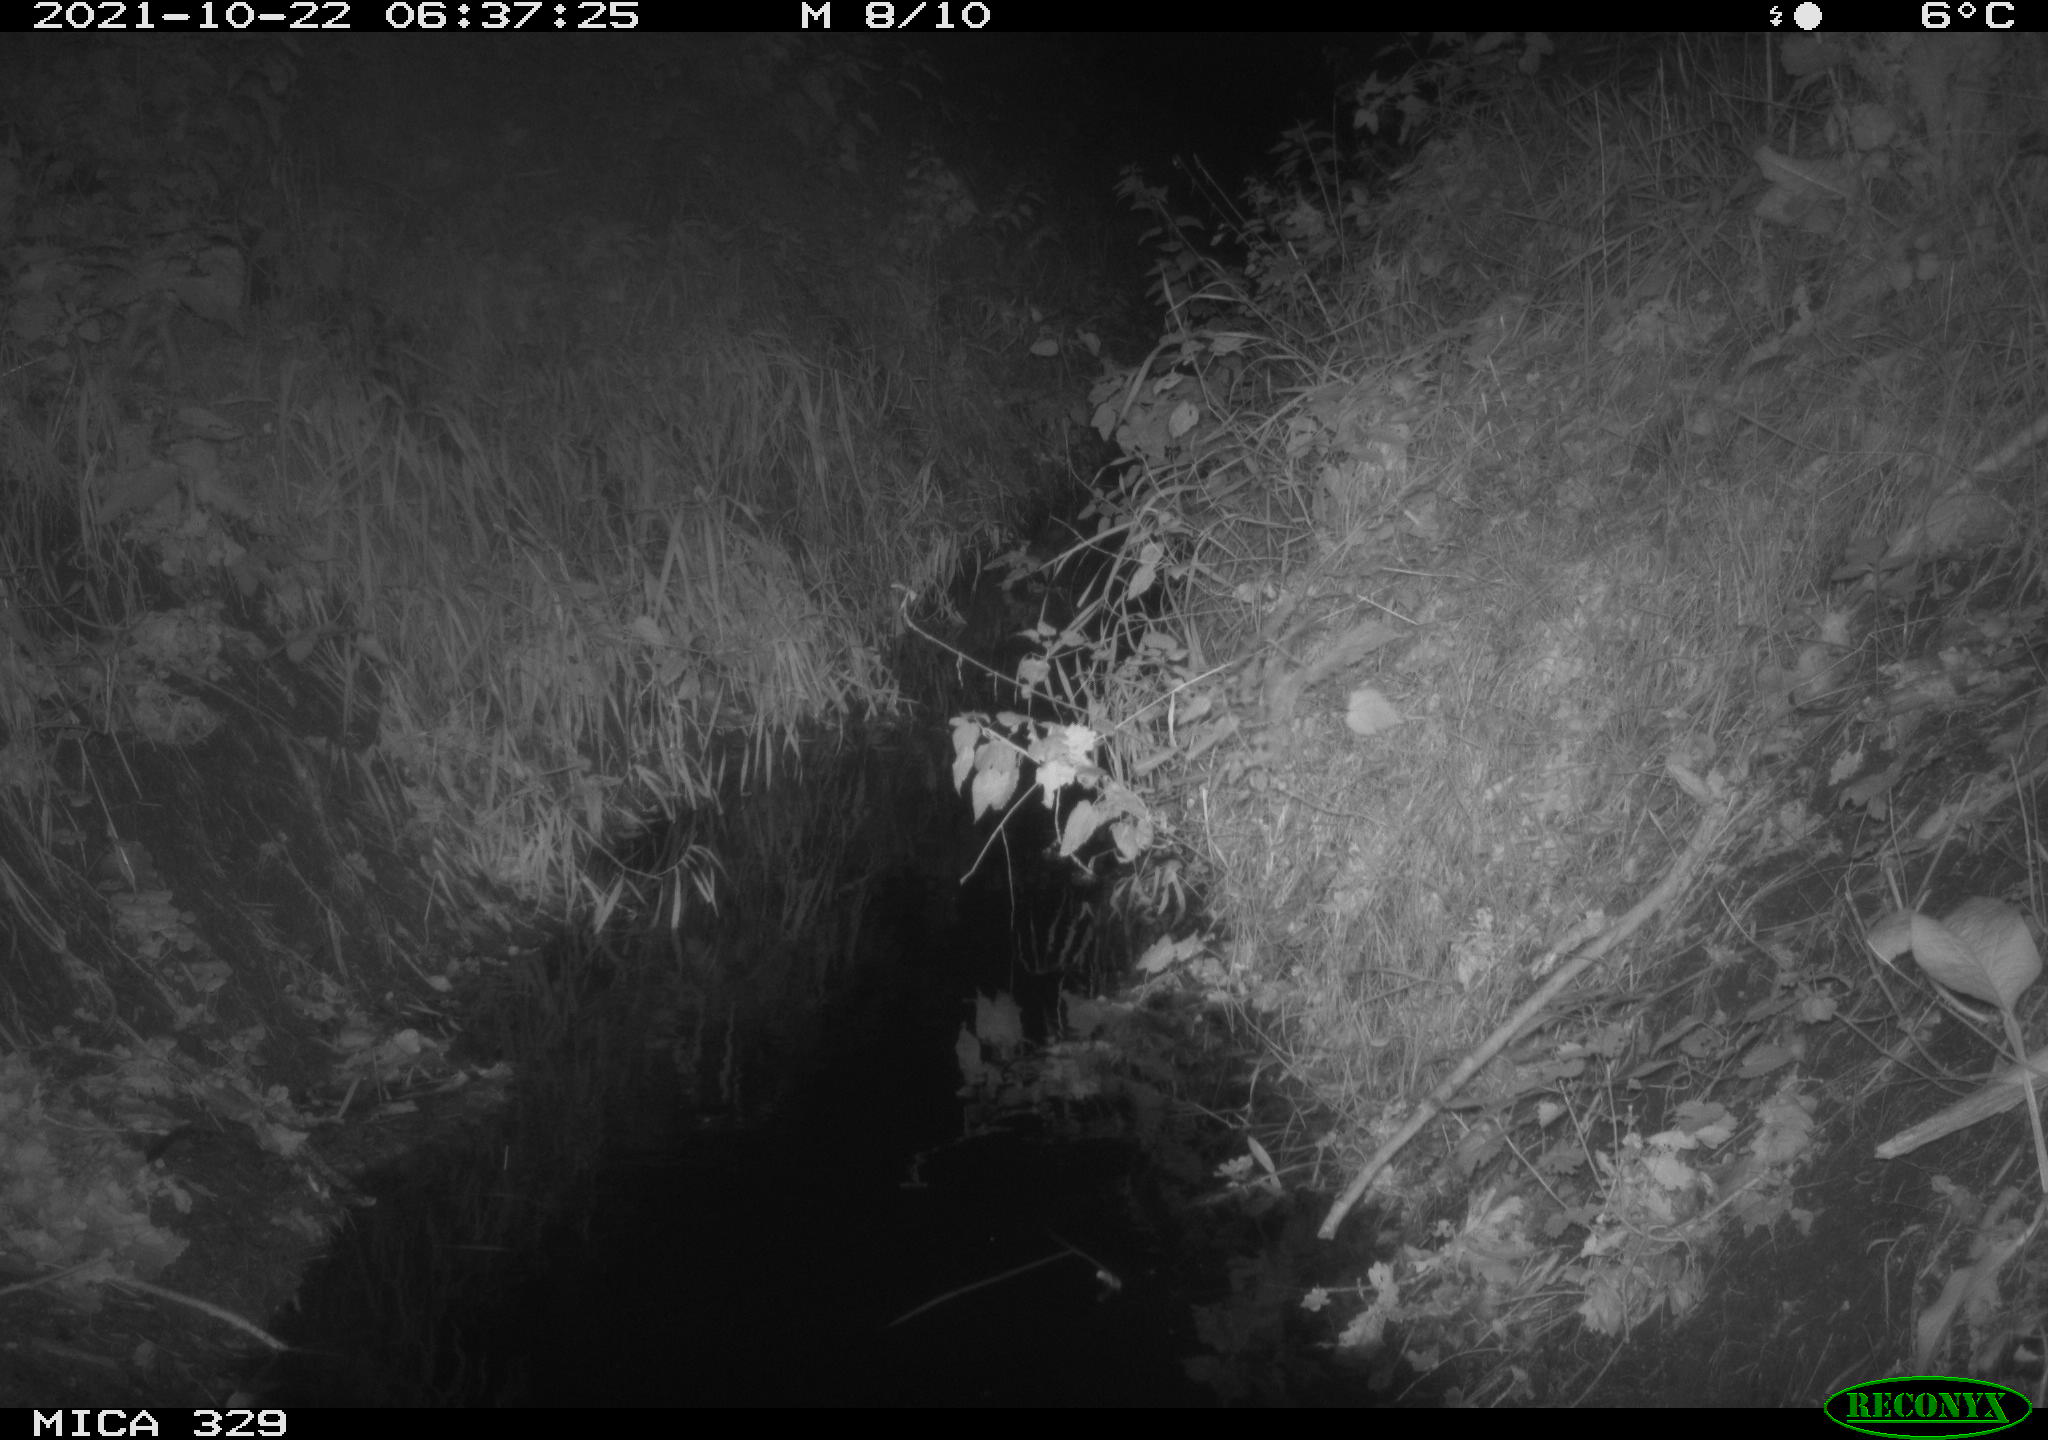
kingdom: Animalia
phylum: Chordata
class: Mammalia
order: Carnivora
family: Mustelidae
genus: Martes
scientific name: Martes foina
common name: Beech marten
